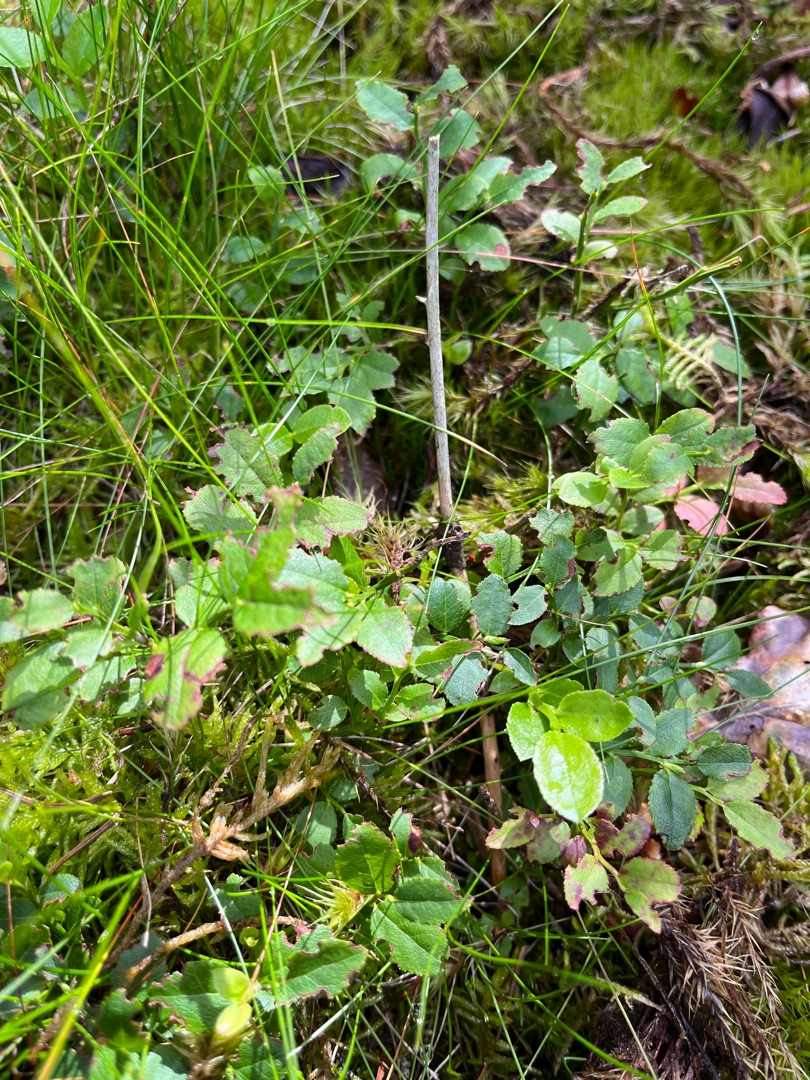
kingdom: Plantae
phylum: Tracheophyta
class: Magnoliopsida
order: Ericales
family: Ericaceae
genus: Vaccinium
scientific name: Vaccinium myrtillus
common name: Blåbær
